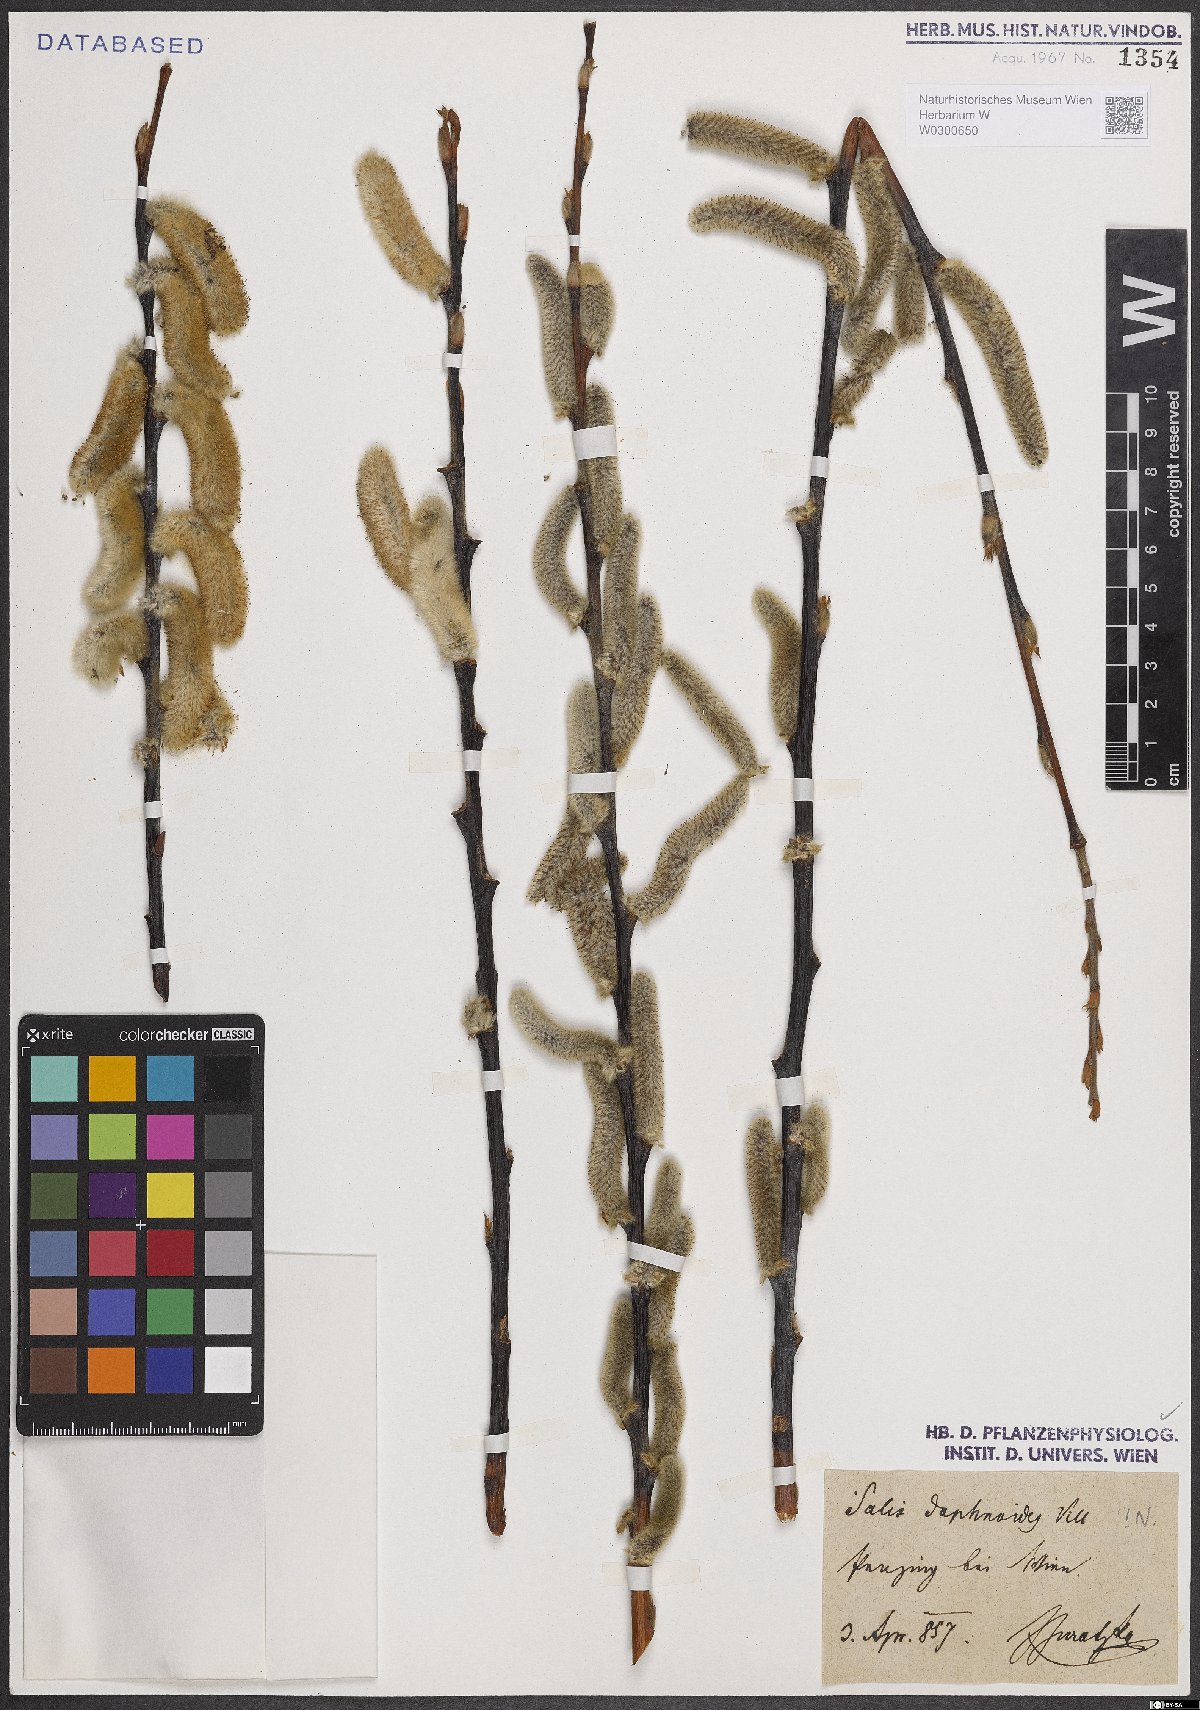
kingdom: Plantae
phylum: Tracheophyta
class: Magnoliopsida
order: Malpighiales
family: Salicaceae
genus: Salix
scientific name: Salix daphnoides
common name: European violet-willow
